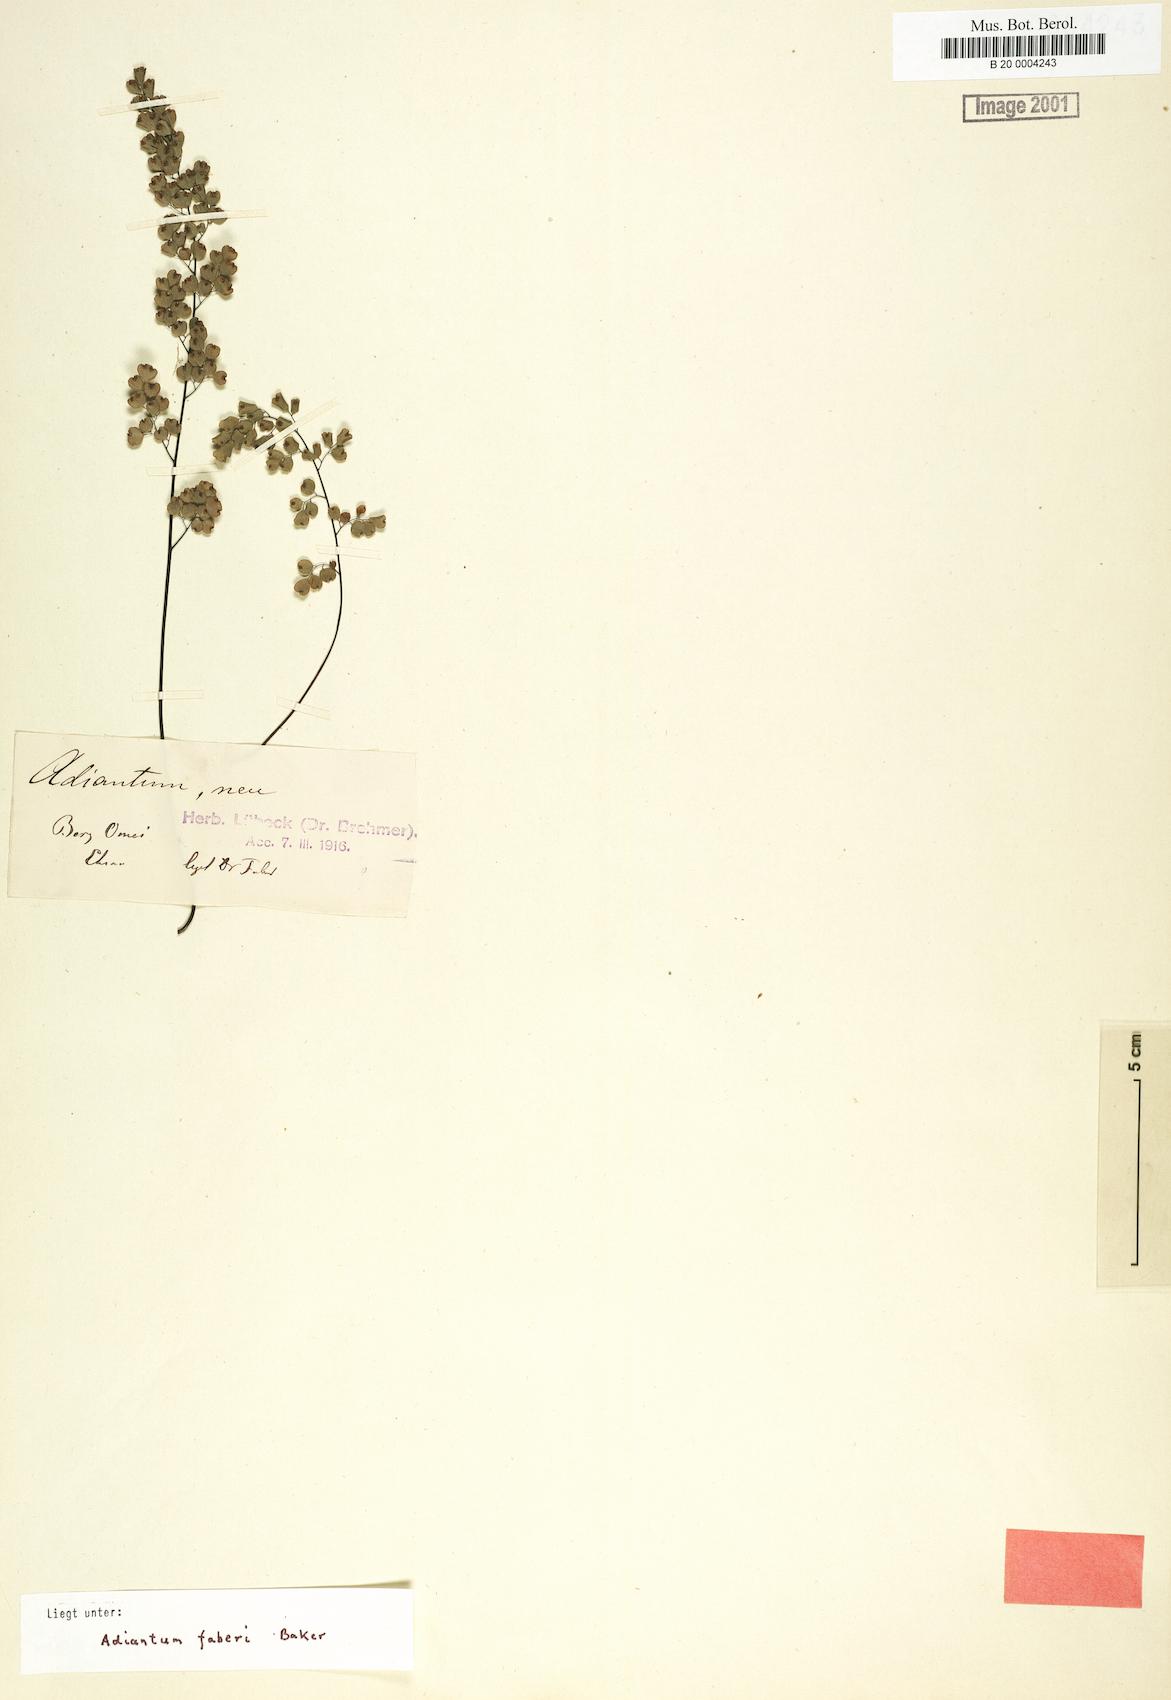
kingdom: Plantae
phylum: Tracheophyta
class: Polypodiopsida
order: Polypodiales
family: Pteridaceae
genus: Adiantum
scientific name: Adiantum roborowskii
